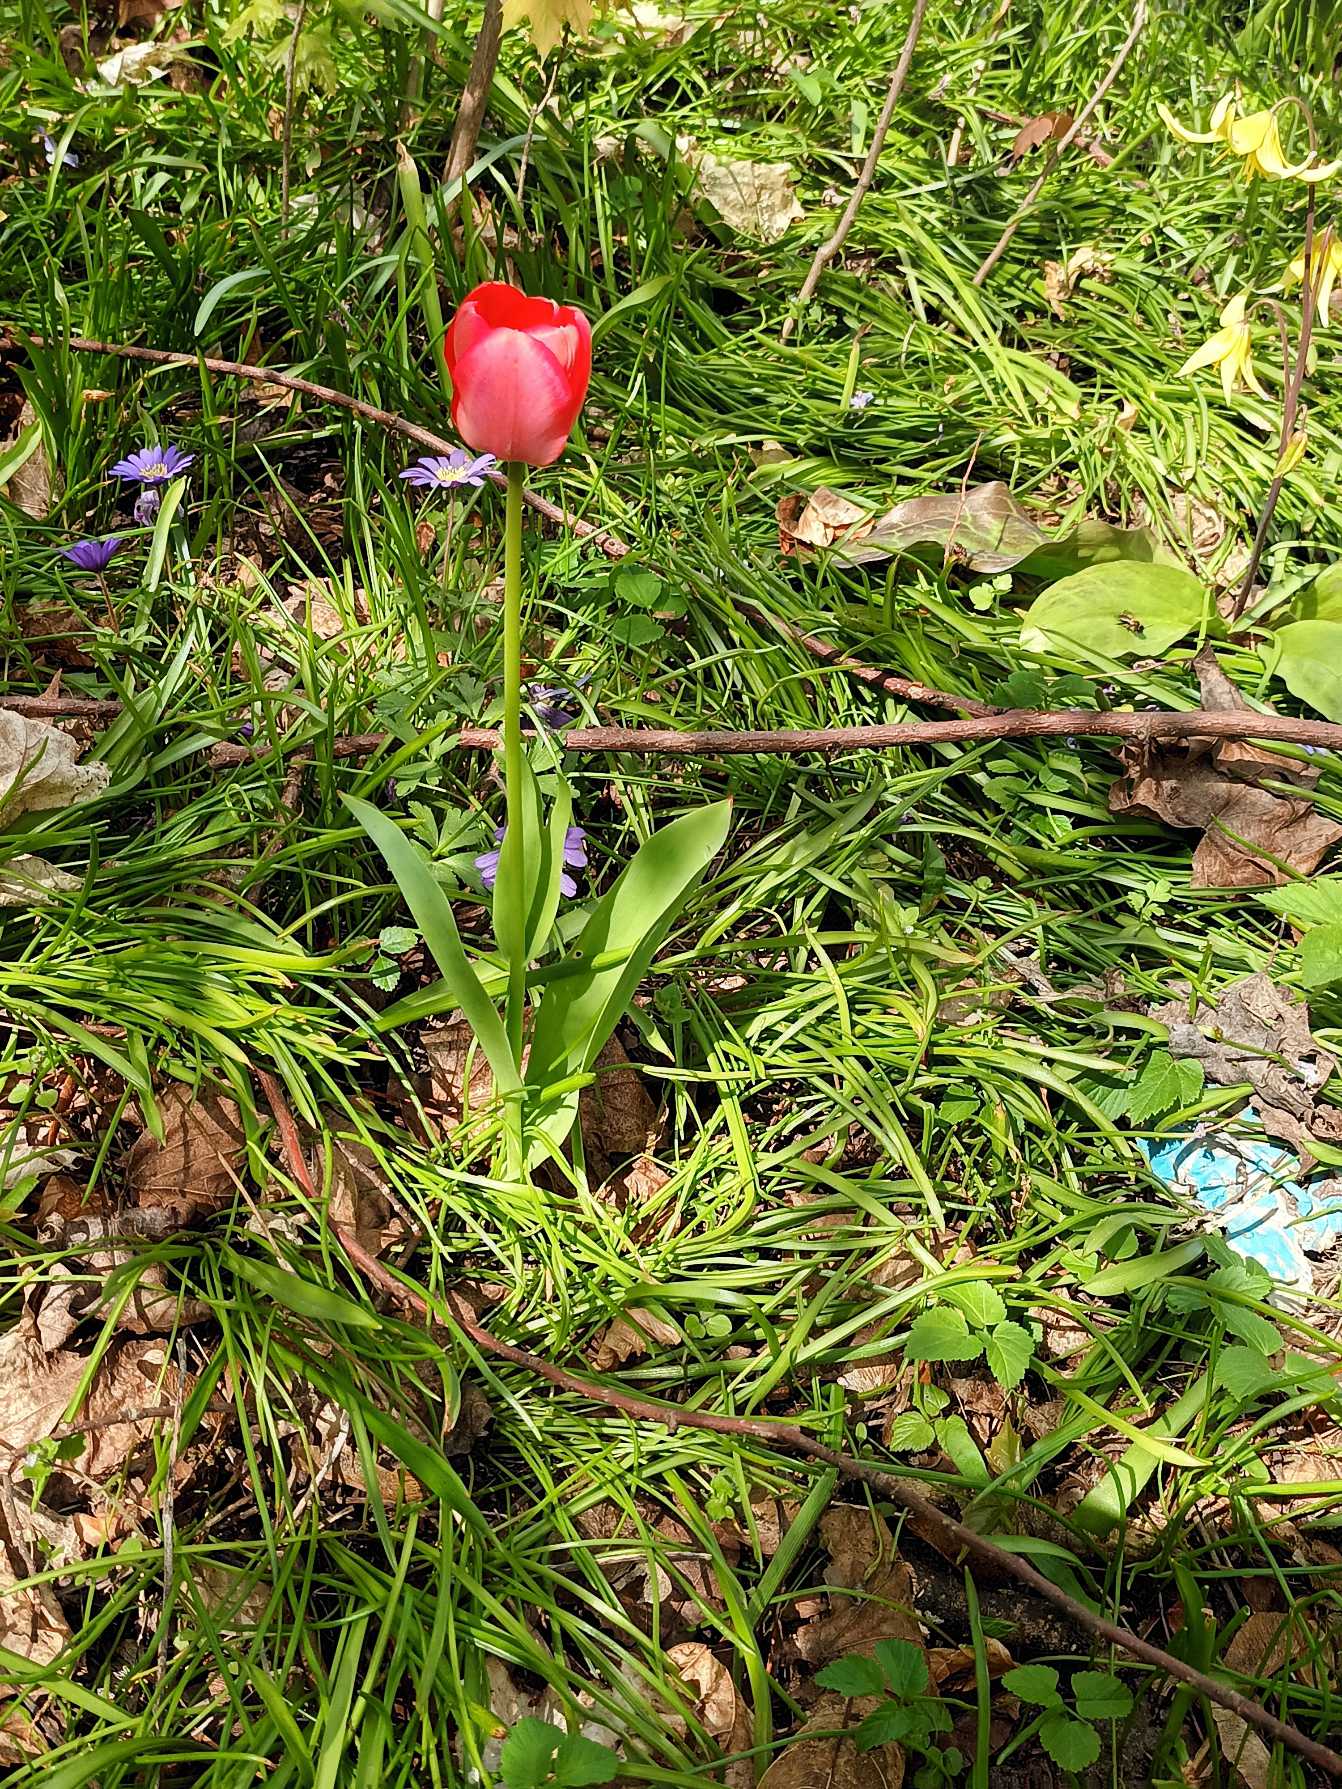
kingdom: Plantae
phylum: Tracheophyta
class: Liliopsida
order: Liliales
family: Liliaceae
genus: Tulipa
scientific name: Tulipa gesneriana
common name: Have-tulipan
